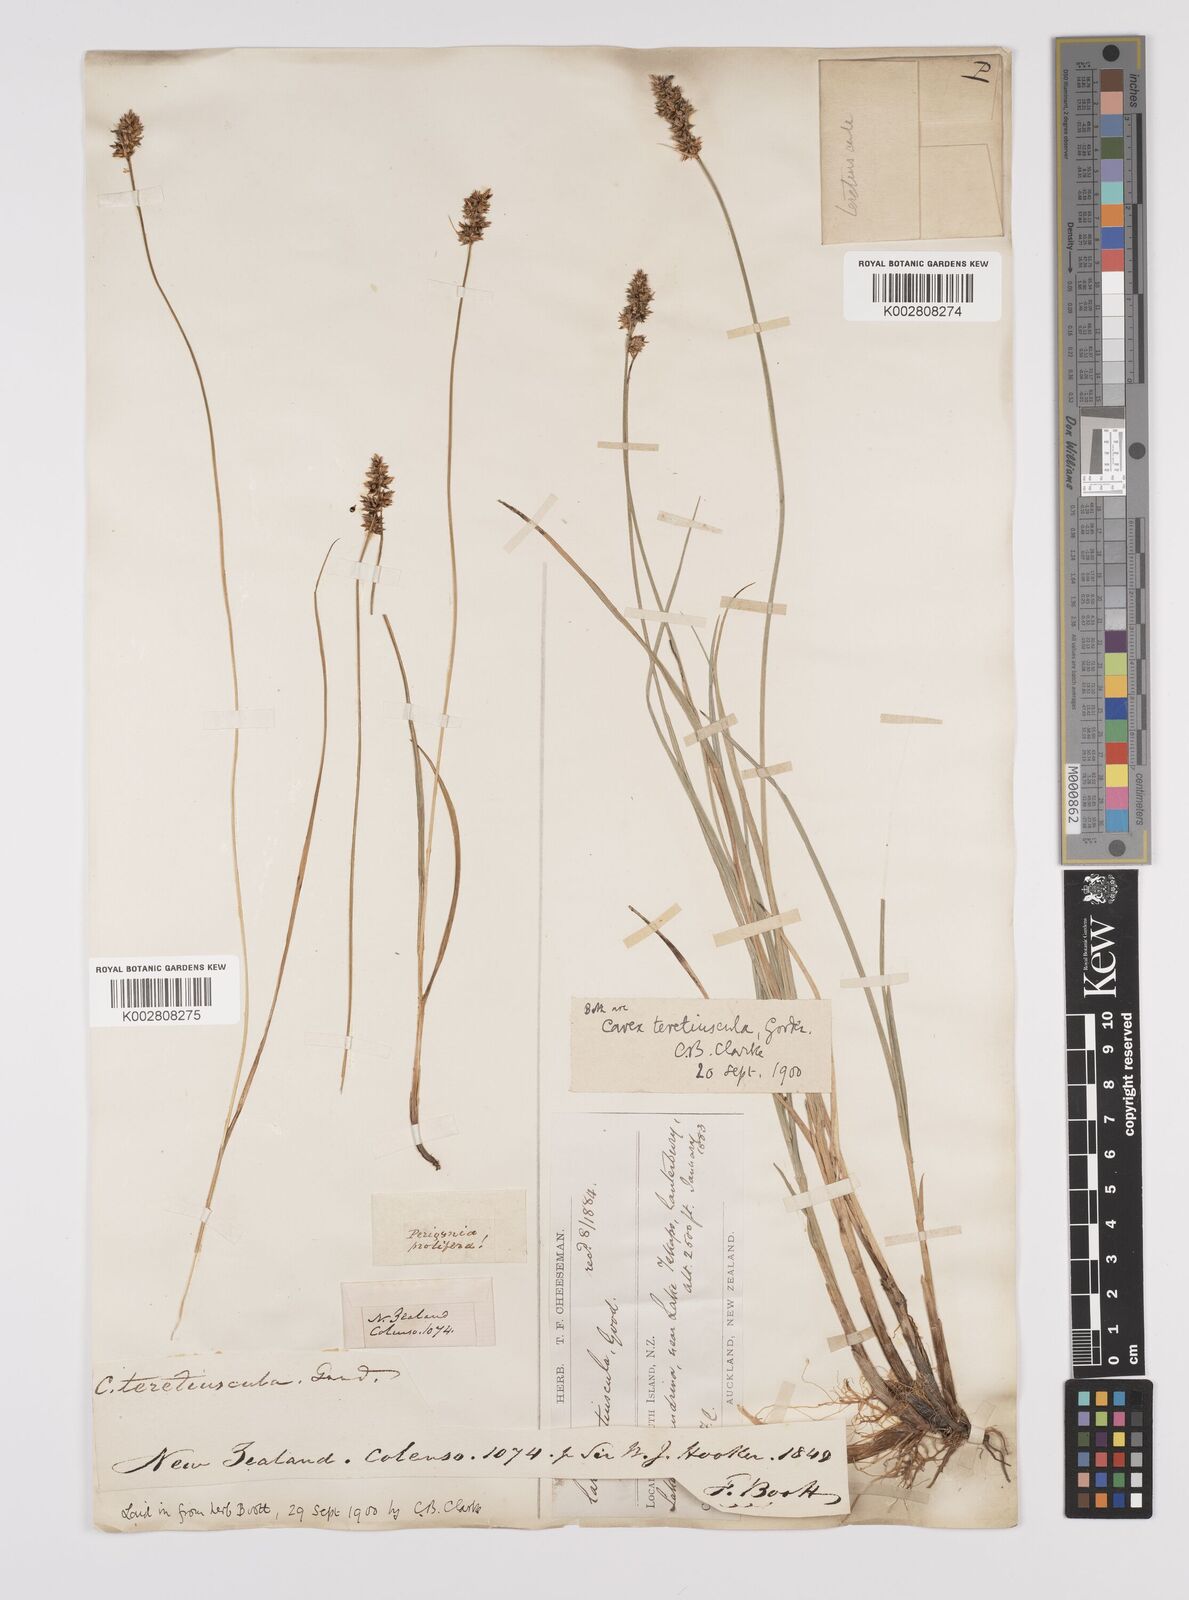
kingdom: Plantae
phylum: Tracheophyta
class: Liliopsida
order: Poales
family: Cyperaceae
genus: Carex
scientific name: Carex diandra
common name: Lesser tussock-sedge
